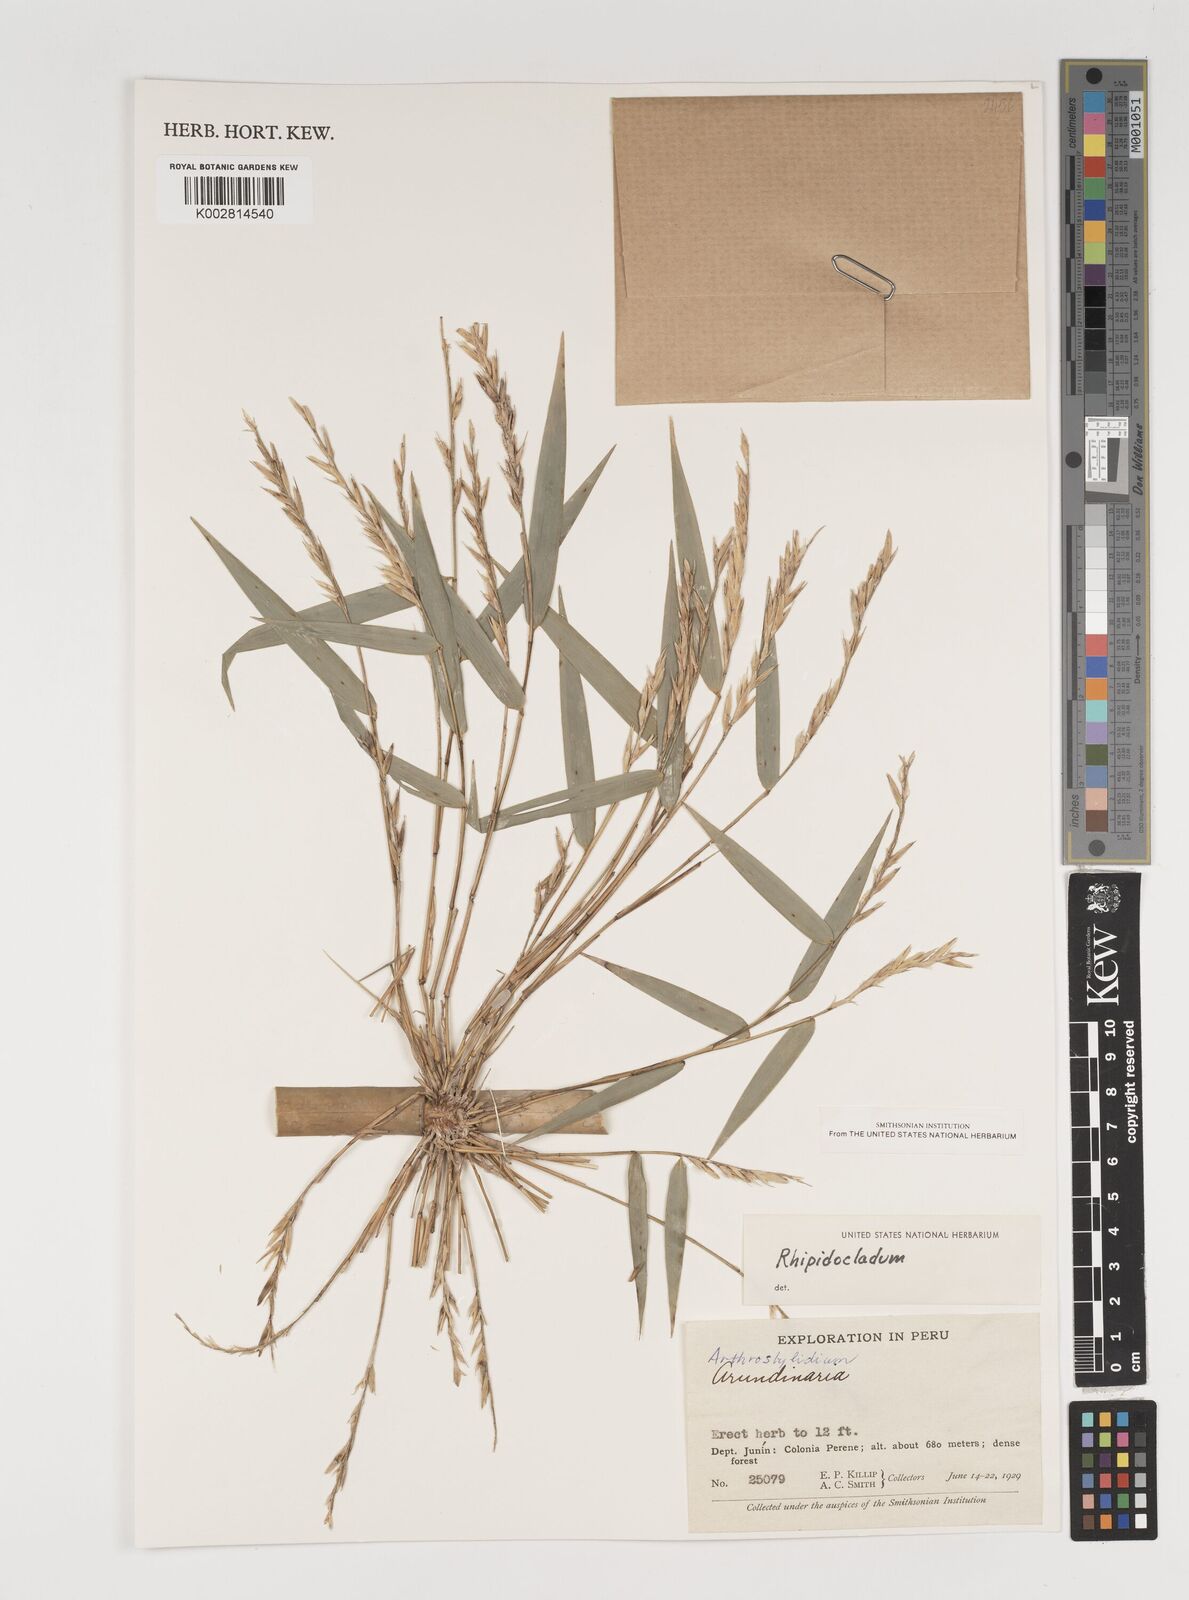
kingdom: Plantae
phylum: Tracheophyta
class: Liliopsida
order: Poales
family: Poaceae
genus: Rhipidocladum
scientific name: Rhipidocladum
